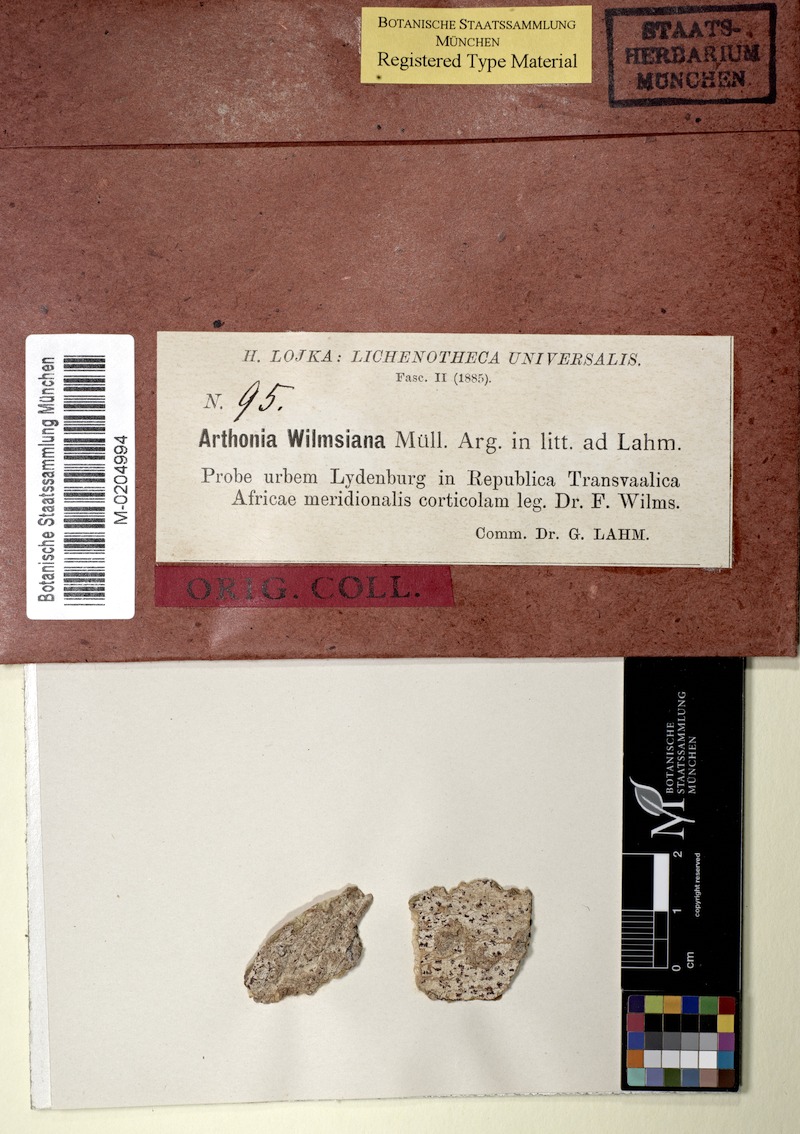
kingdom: Fungi
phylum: Ascomycota
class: Arthoniomycetes
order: Arthoniales
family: Arthoniaceae
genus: Coniarthonia
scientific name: Coniarthonia wilmsiana
